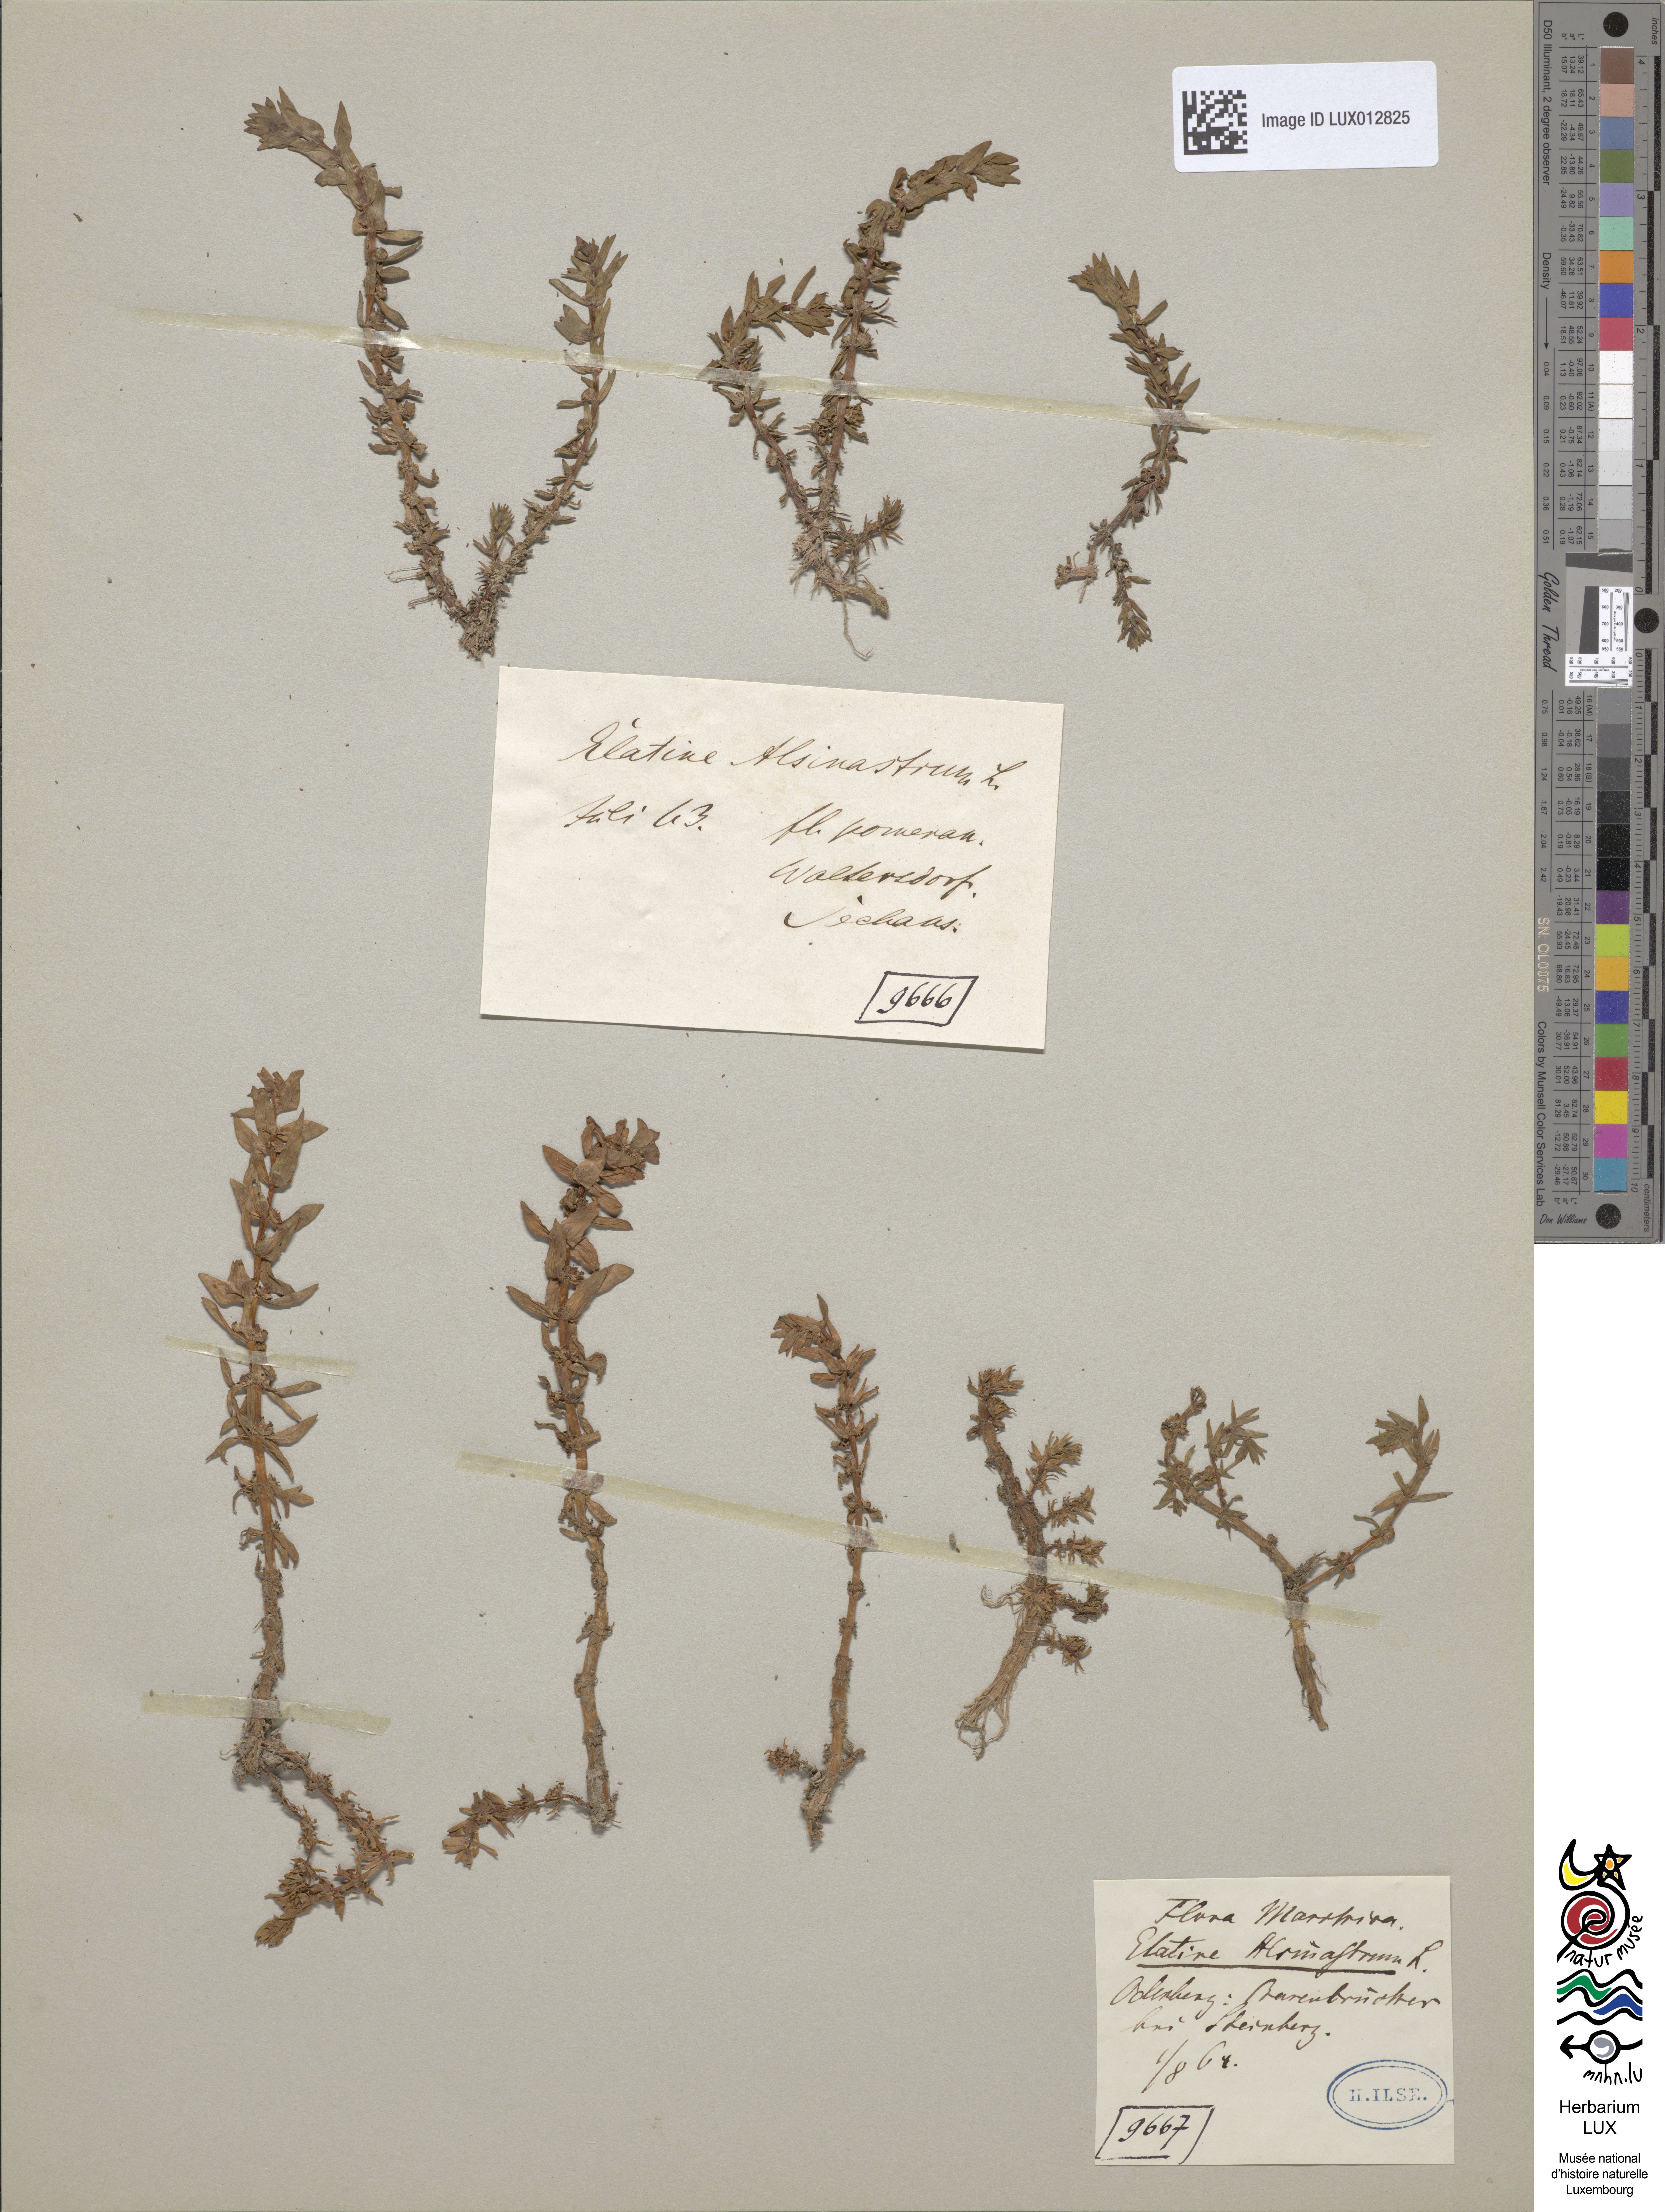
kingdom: Plantae
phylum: Tracheophyta
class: Magnoliopsida
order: Malpighiales
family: Elatinaceae
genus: Elatine
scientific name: Elatine alsinastrum
